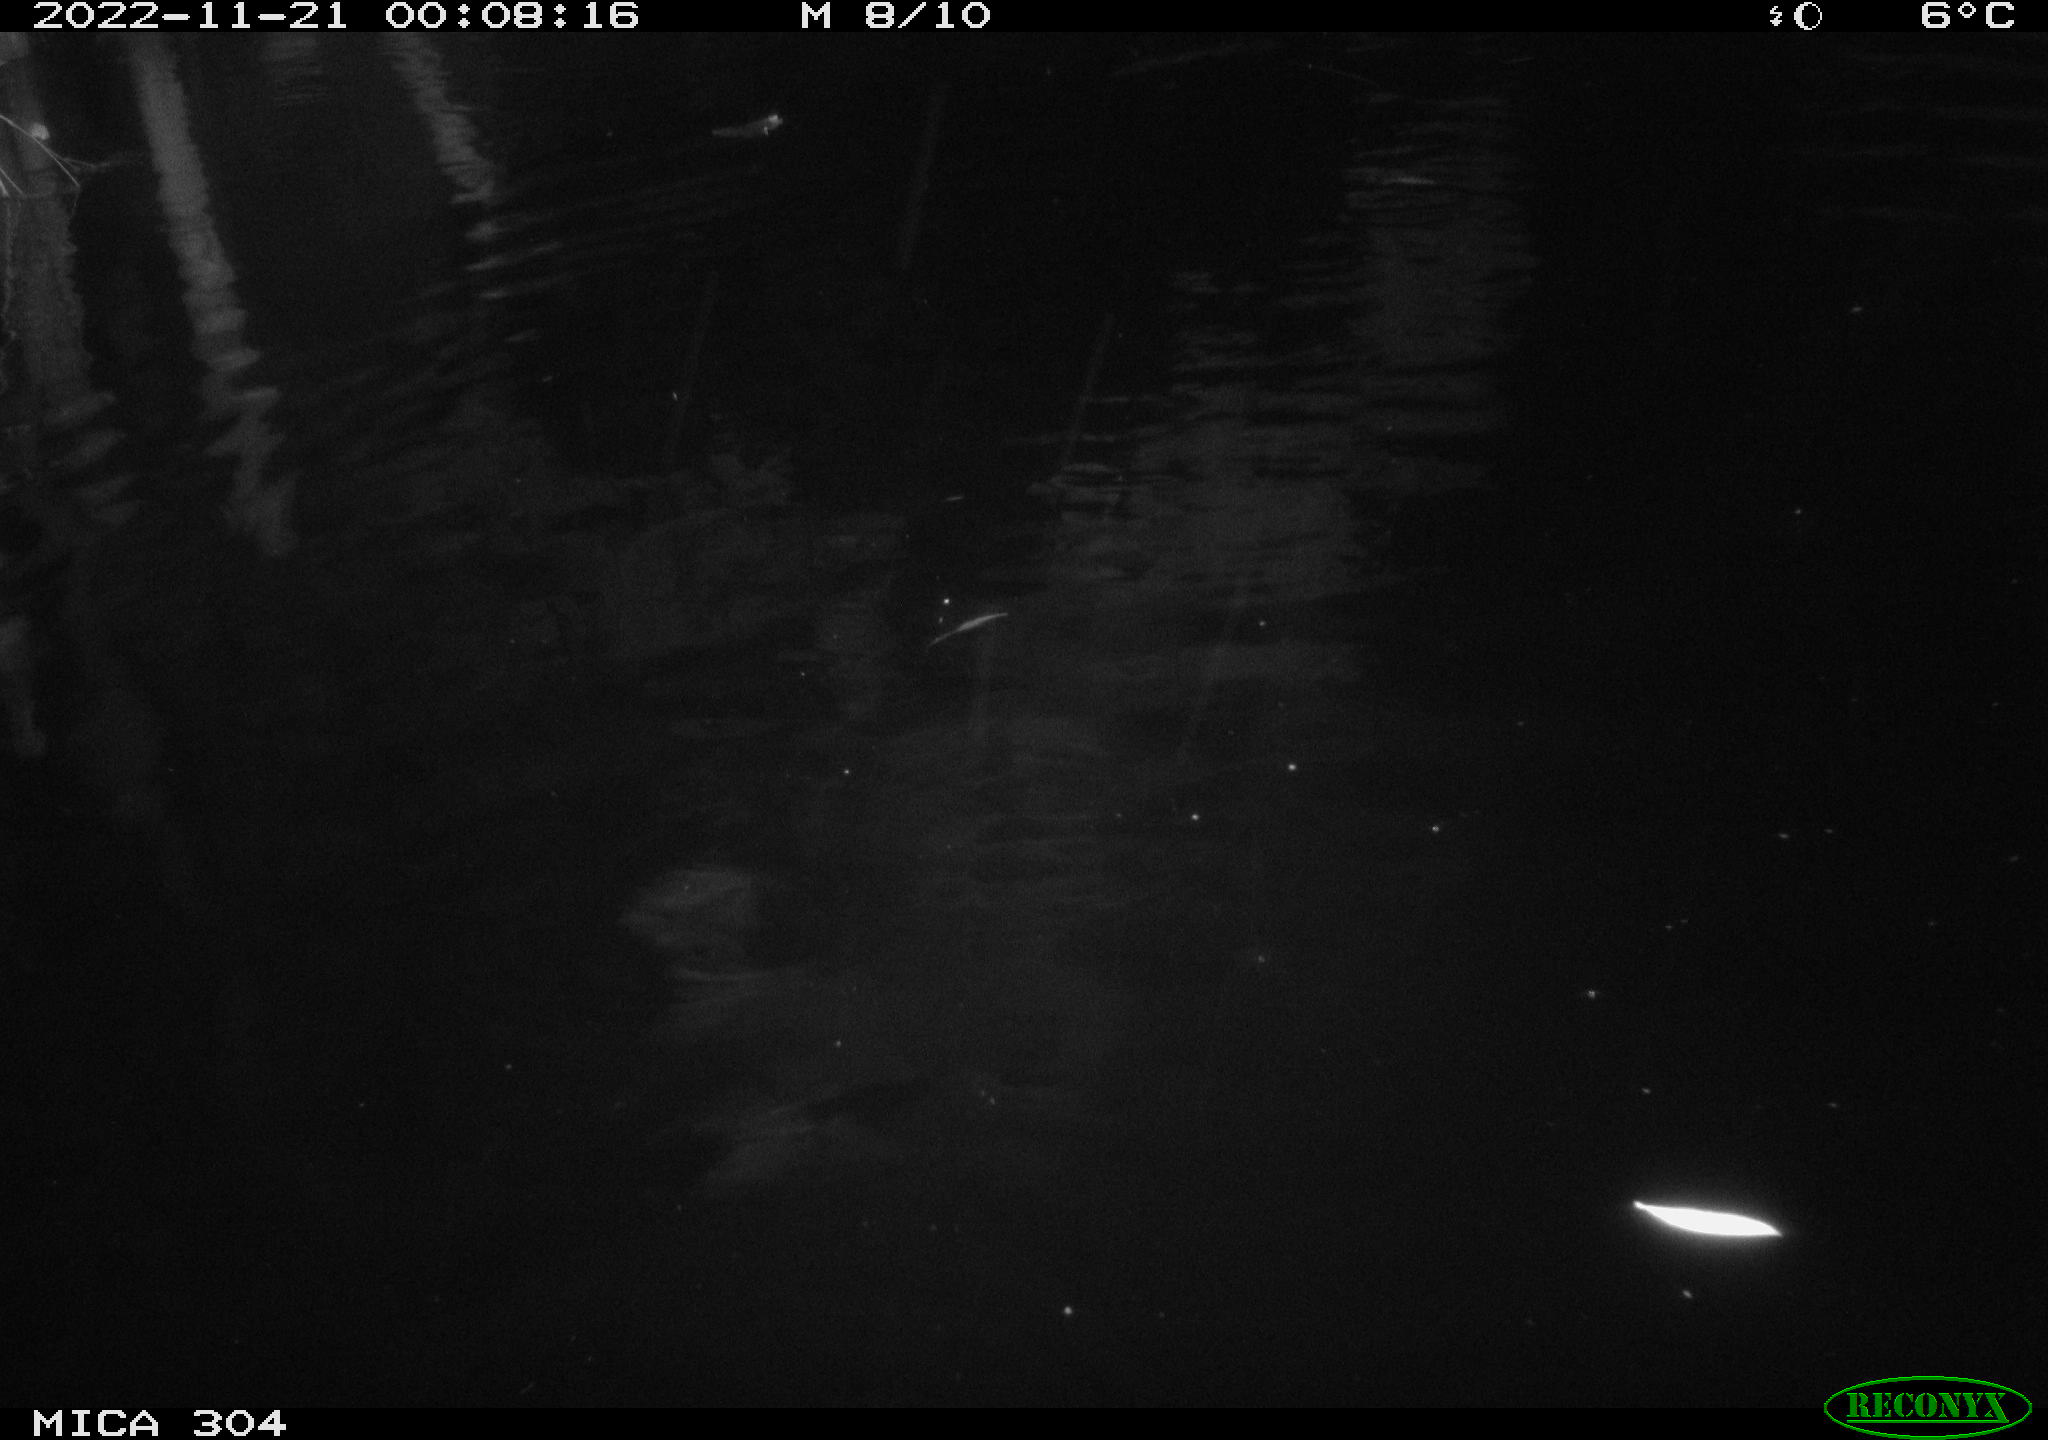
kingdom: Animalia
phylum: Chordata
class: Mammalia
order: Rodentia
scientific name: Rodentia
